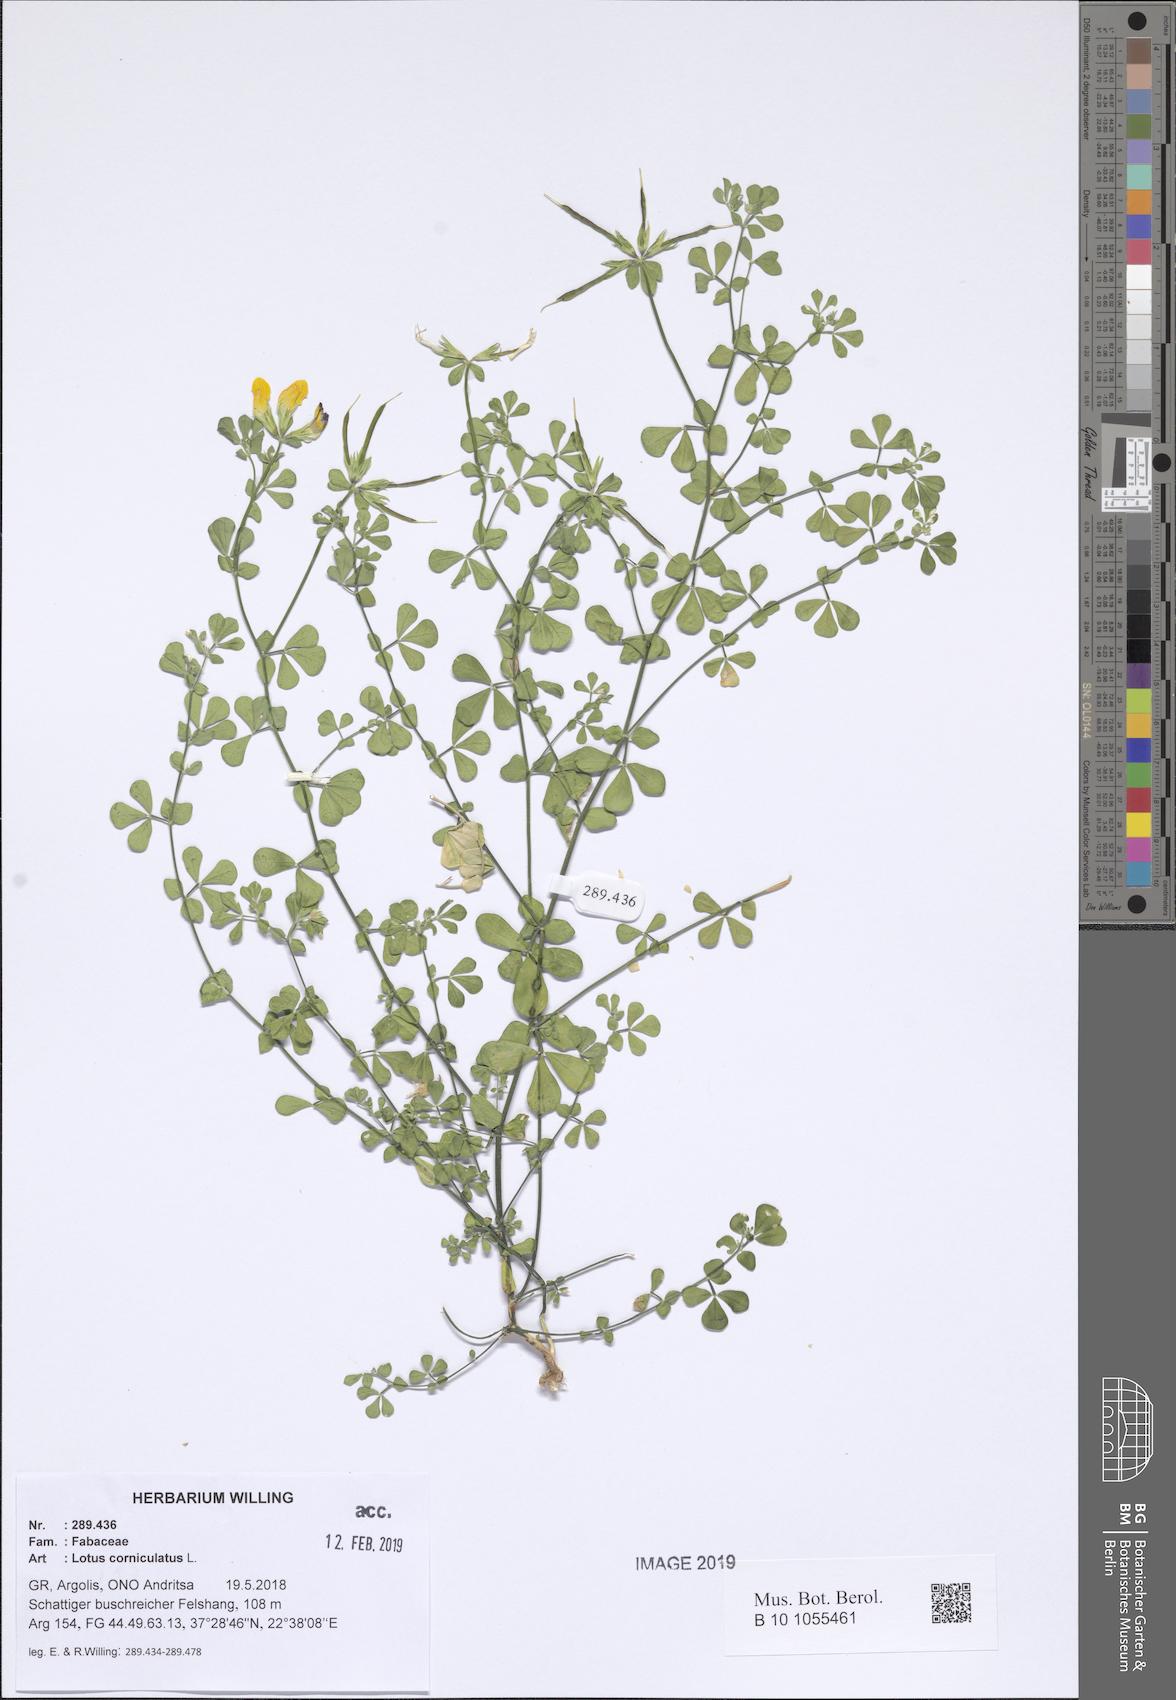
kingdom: Plantae
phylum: Tracheophyta
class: Magnoliopsida
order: Fabales
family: Fabaceae
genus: Lotus
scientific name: Lotus corniculatus
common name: Common bird's-foot-trefoil
